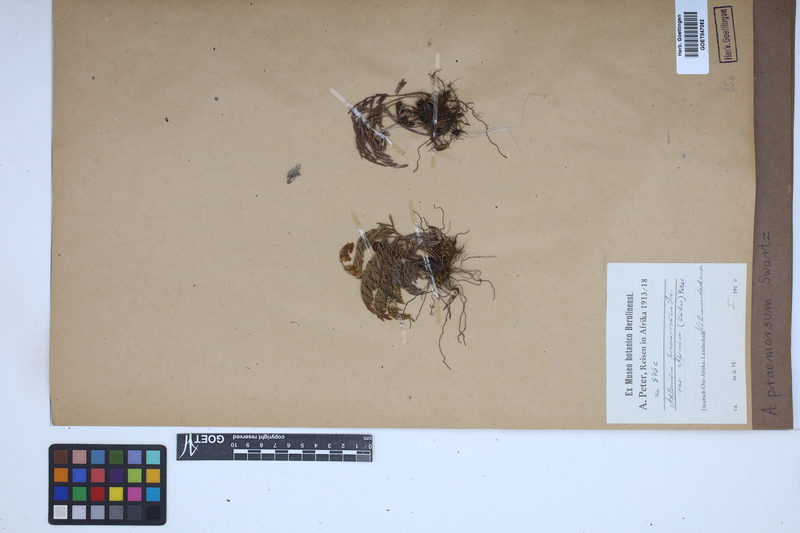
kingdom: Plantae
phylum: Tracheophyta
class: Polypodiopsida
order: Polypodiales
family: Aspleniaceae
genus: Asplenium
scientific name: Asplenium praemorsum
